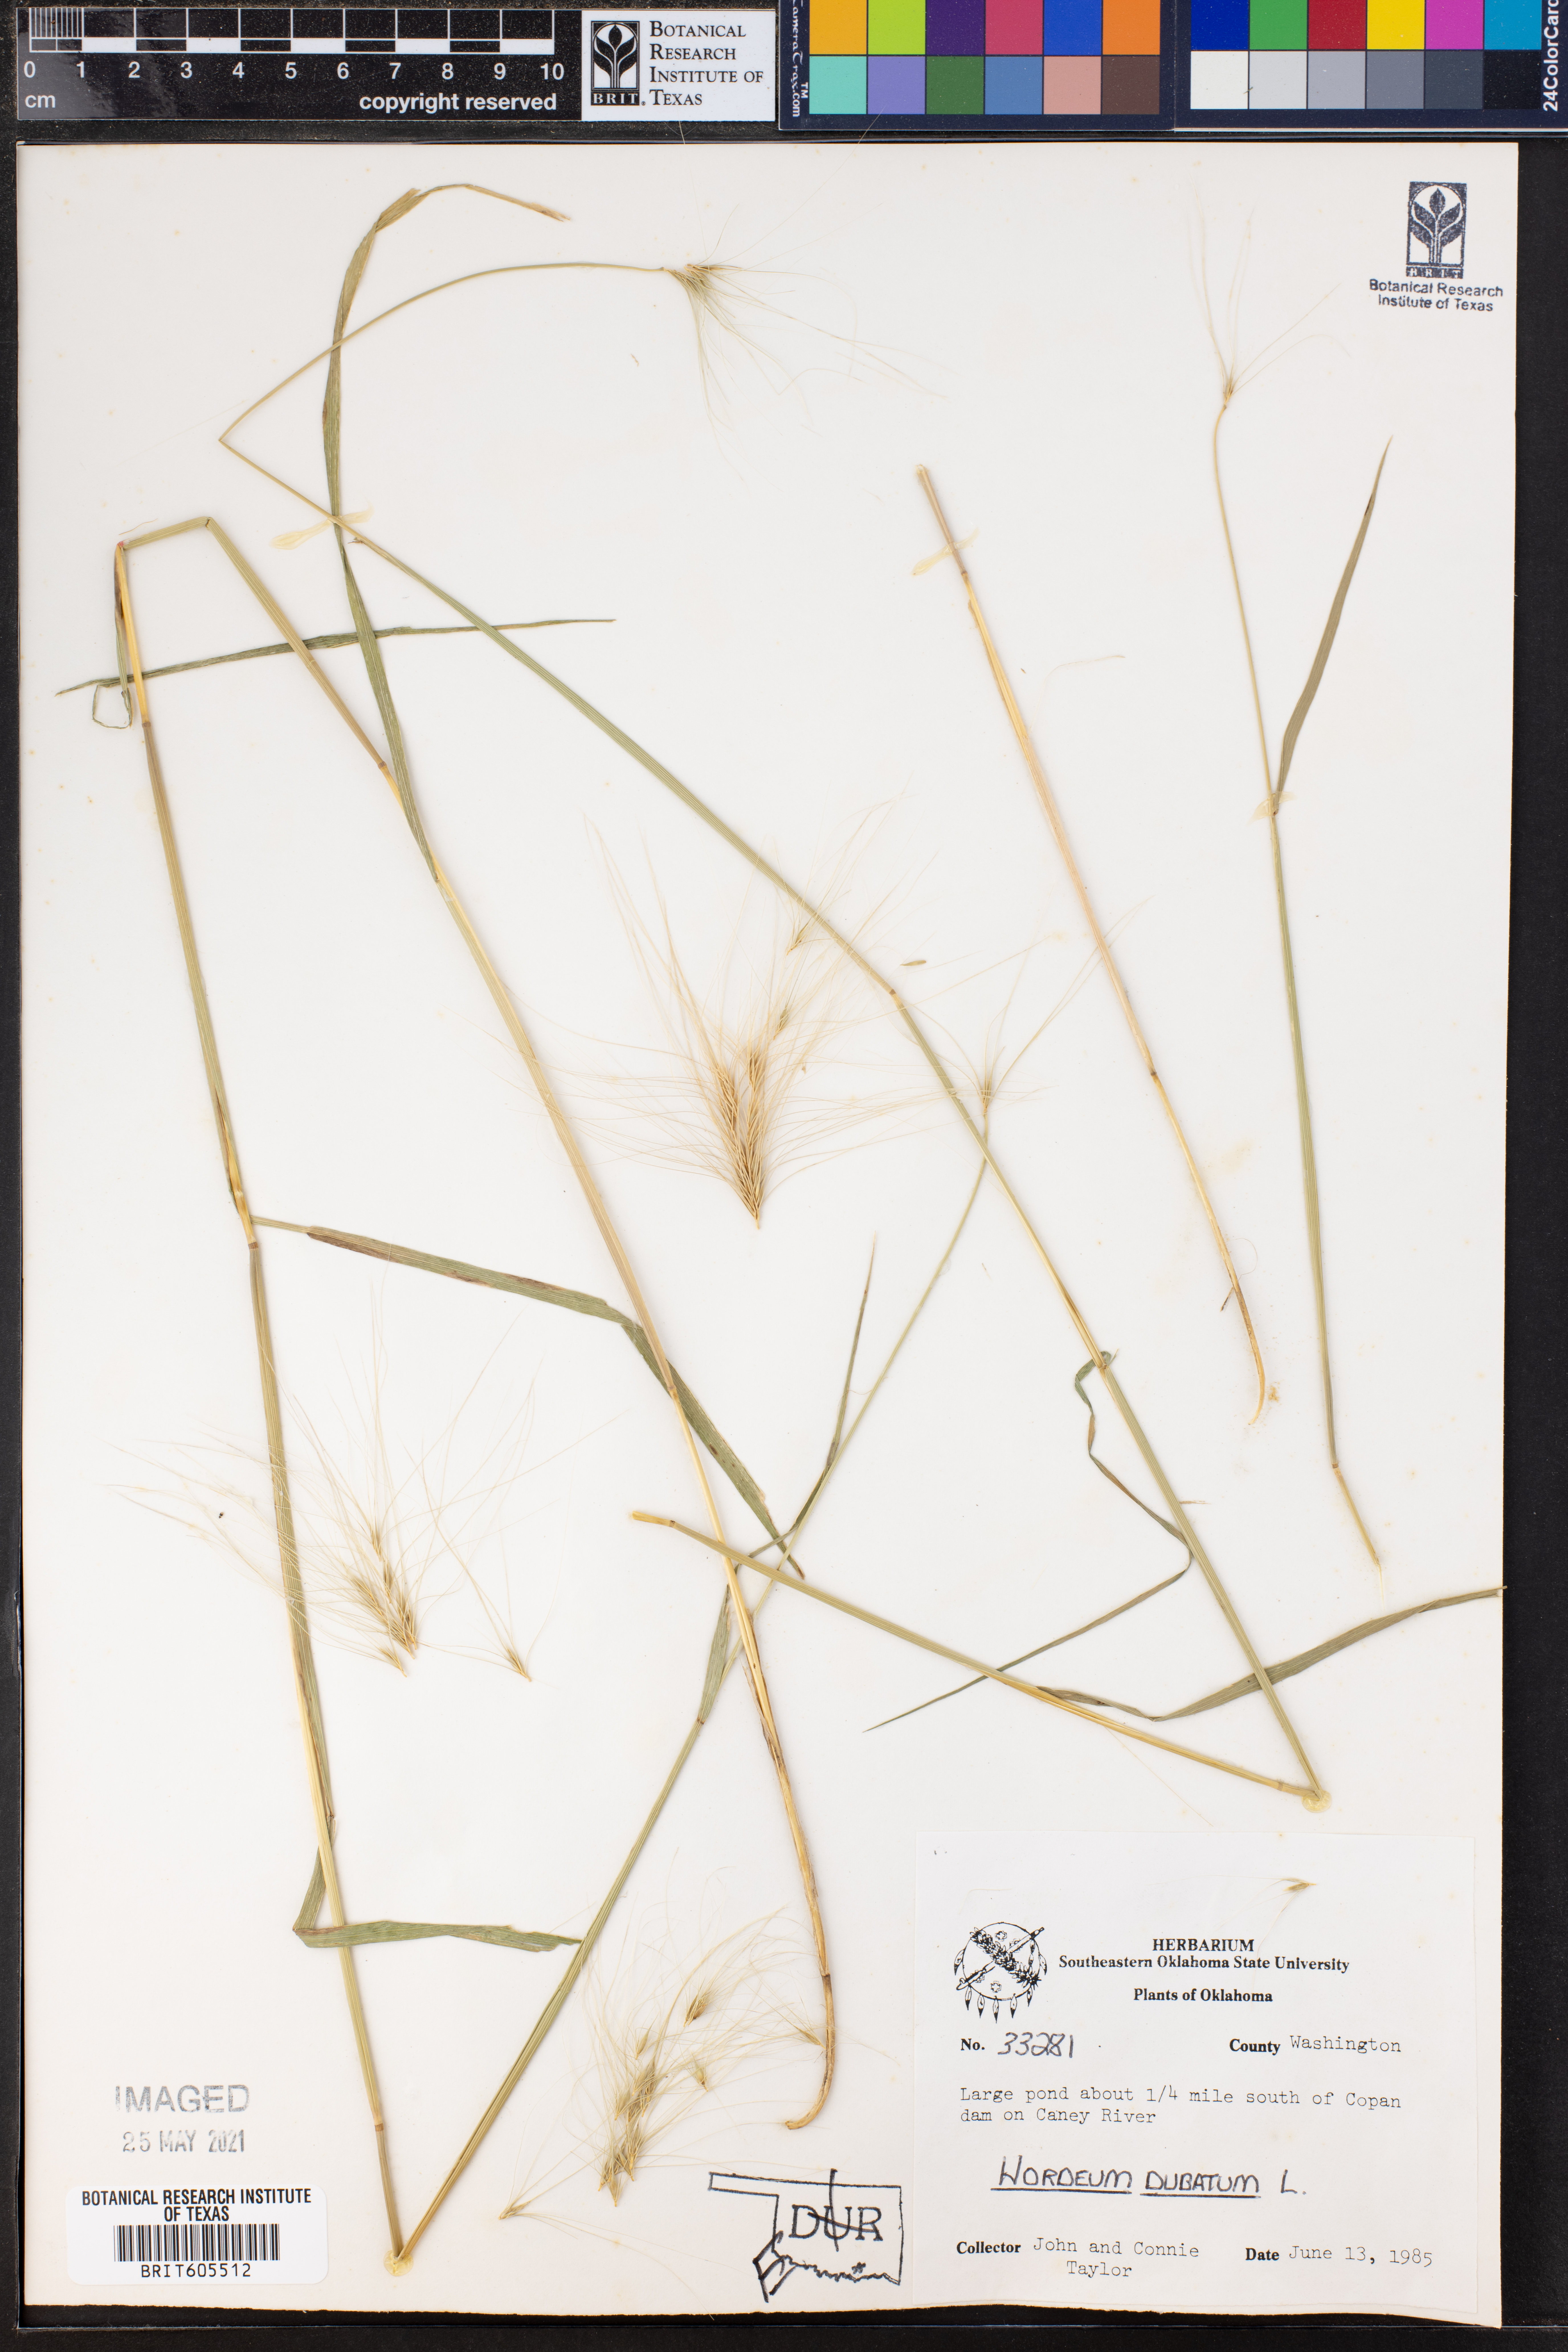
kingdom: Plantae
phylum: Tracheophyta
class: Liliopsida
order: Poales
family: Poaceae
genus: Hordeum
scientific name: Hordeum jubatum
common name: Foxtail barley
